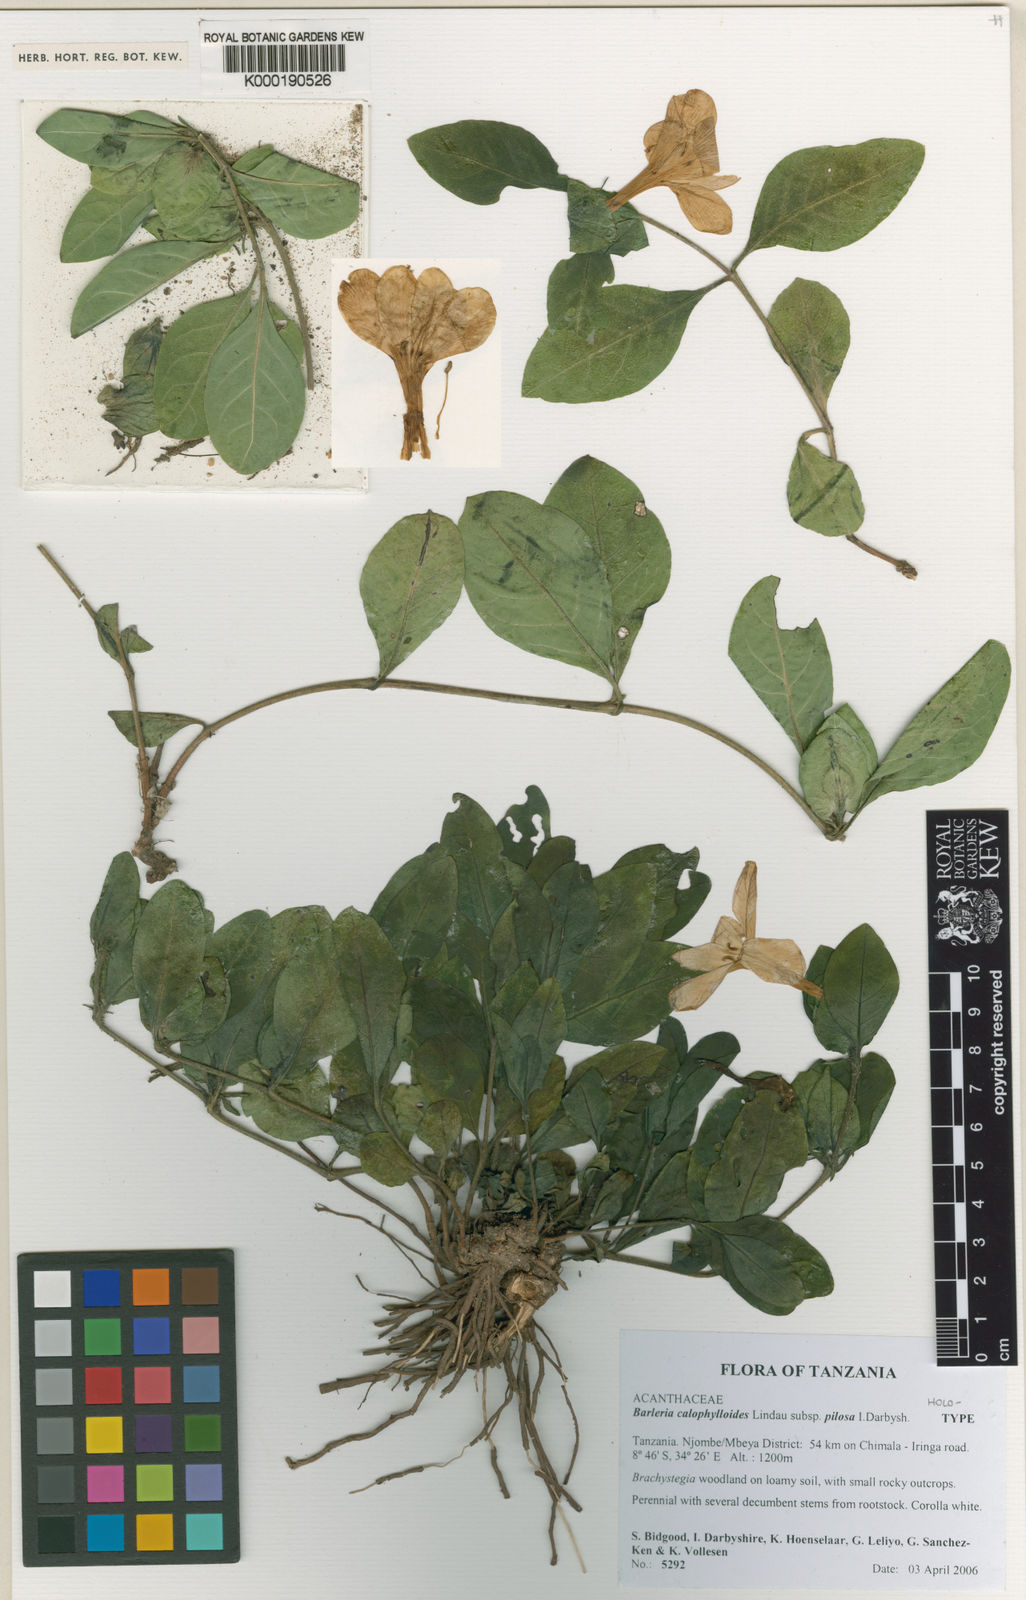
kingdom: Plantae
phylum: Tracheophyta
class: Magnoliopsida
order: Lamiales
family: Acanthaceae
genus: Barleria
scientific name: Barleria calophylloides
